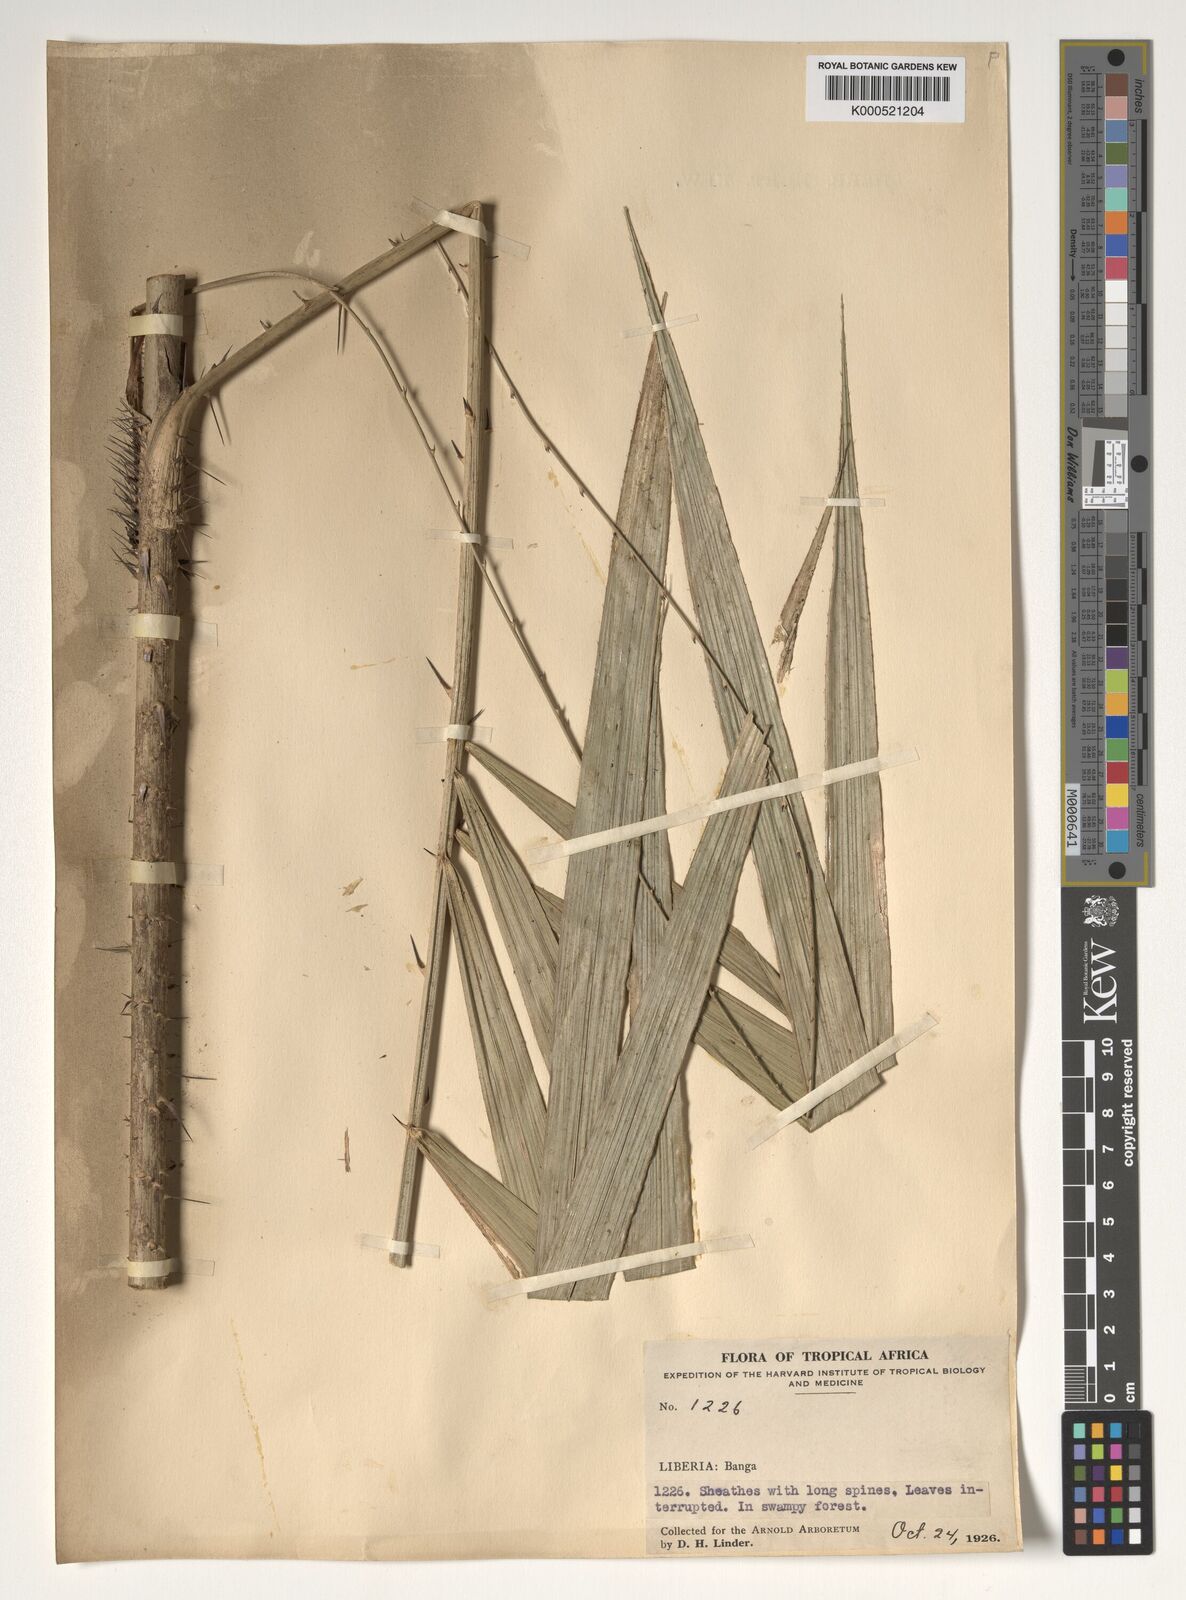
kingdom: Plantae
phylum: Tracheophyta
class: Liliopsida
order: Arecales
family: Arecaceae
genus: Calamus
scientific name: Calamus deerratus
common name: Rattan
